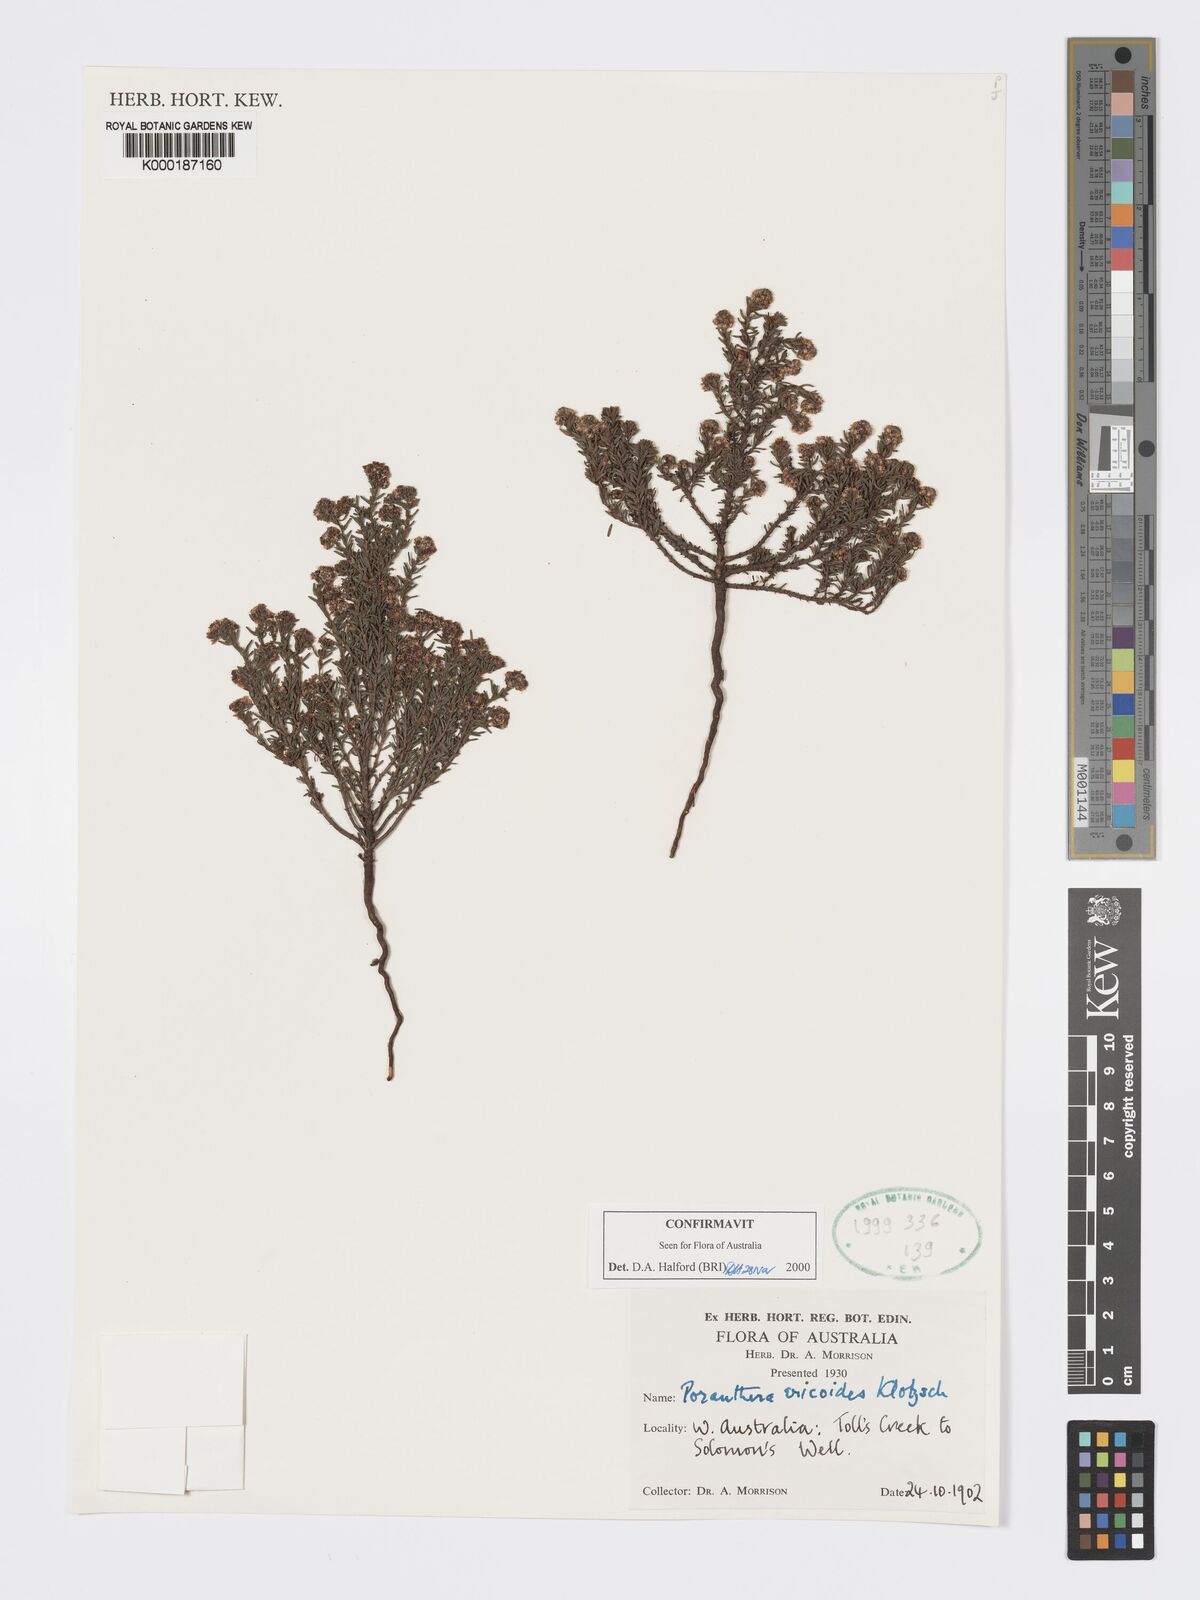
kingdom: Plantae
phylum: Tracheophyta
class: Magnoliopsida
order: Malpighiales
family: Phyllanthaceae
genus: Poranthera
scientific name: Poranthera ericoides
